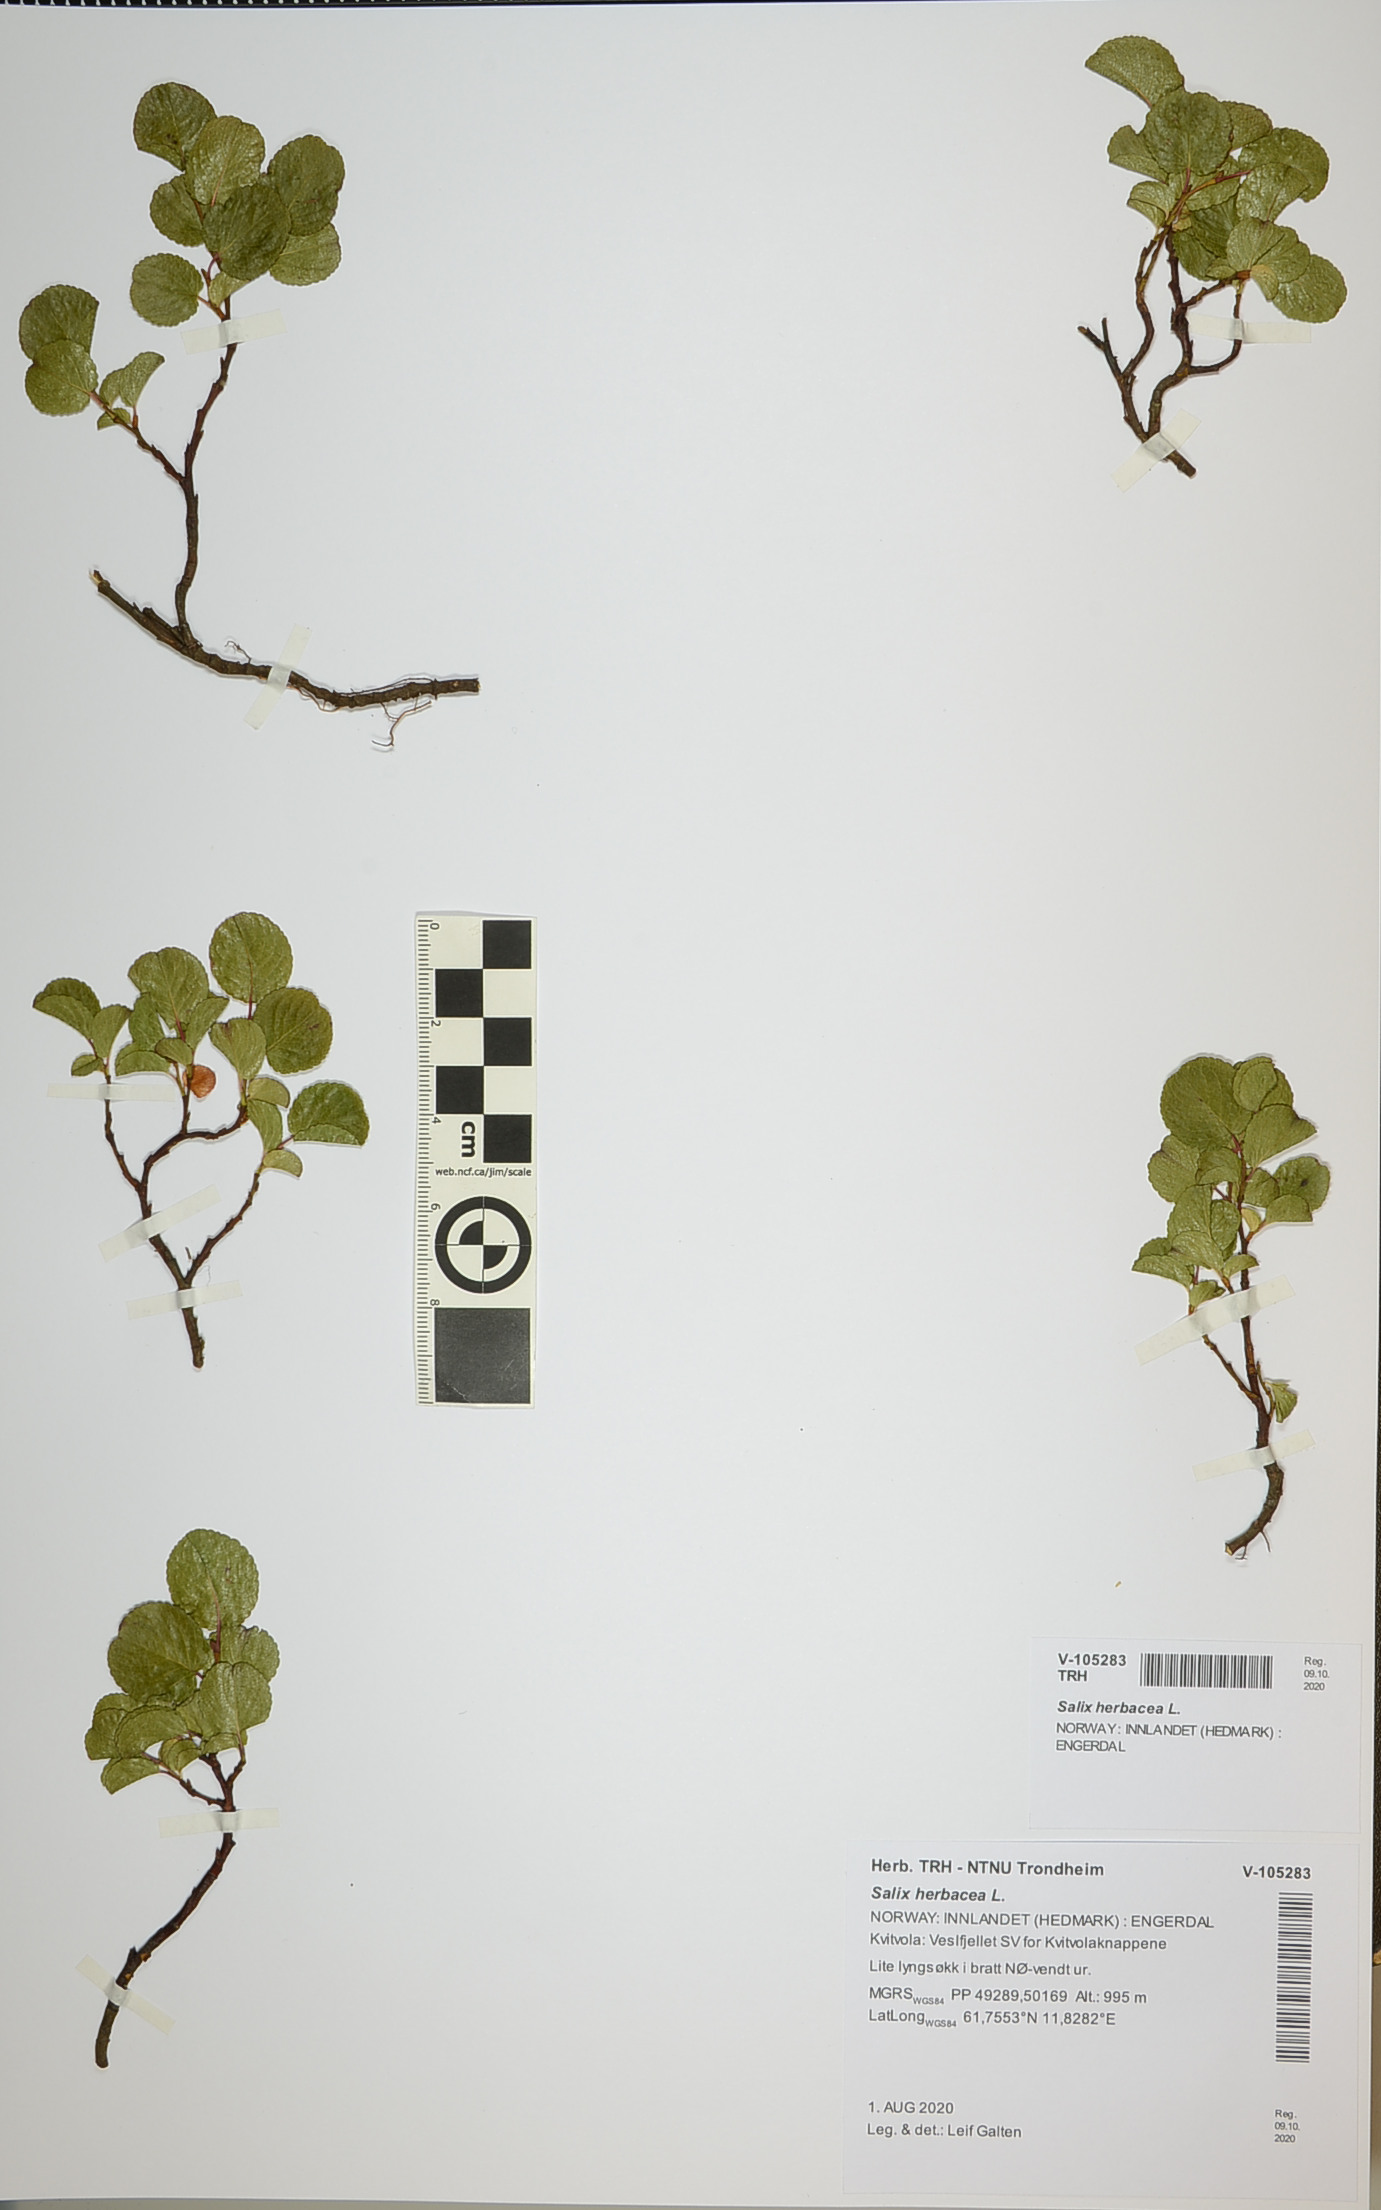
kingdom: Plantae
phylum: Tracheophyta
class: Magnoliopsida
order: Malpighiales
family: Salicaceae
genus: Salix
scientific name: Salix herbacea
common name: Dwarf willow
